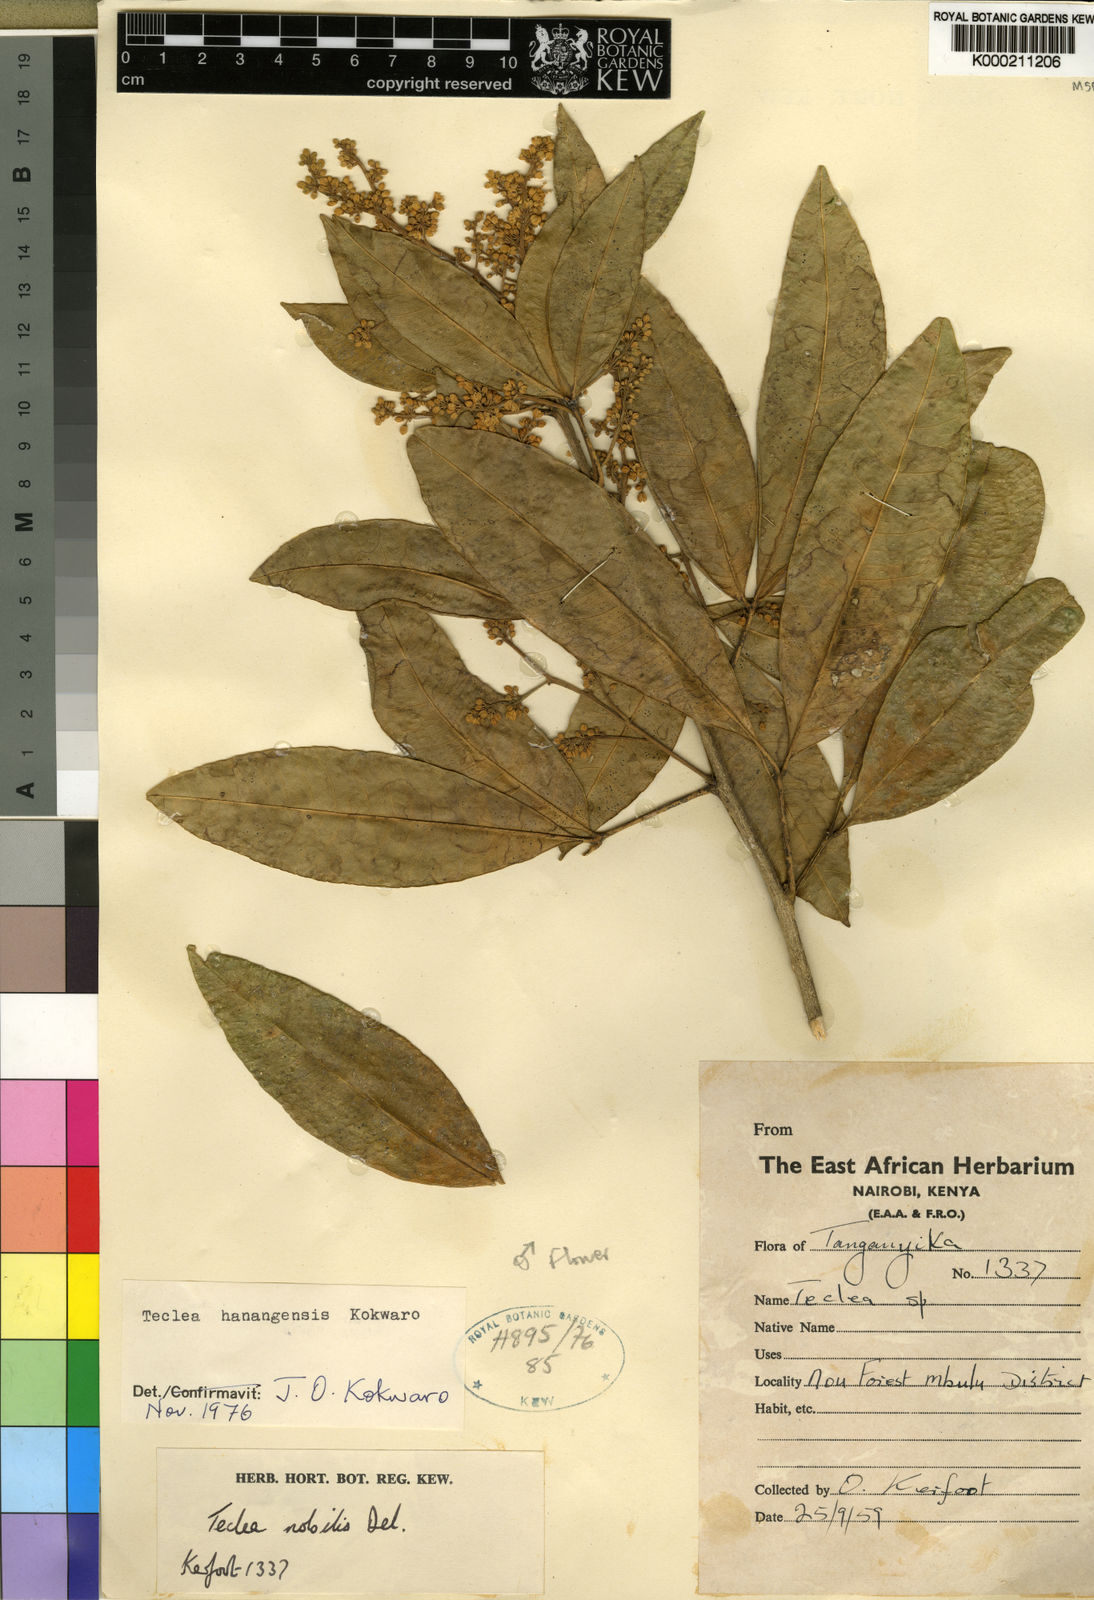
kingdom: Plantae
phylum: Tracheophyta
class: Magnoliopsida
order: Sapindales
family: Rutaceae
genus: Vepris
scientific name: Vepris hanangensis
